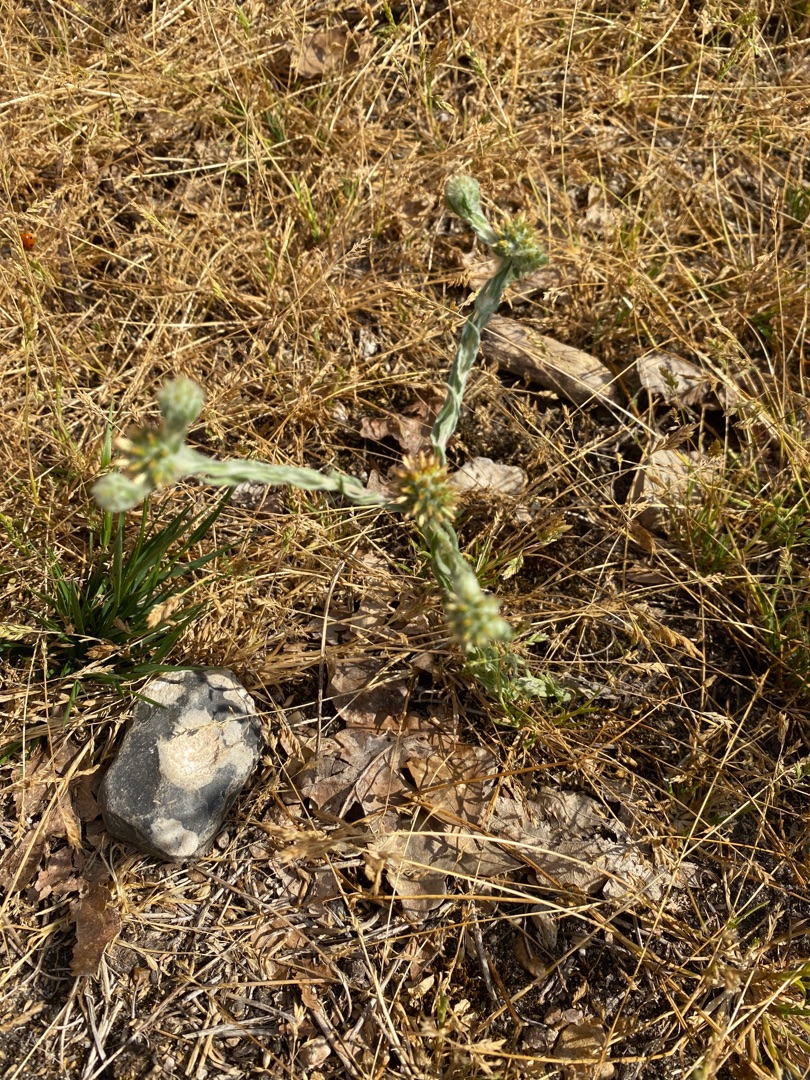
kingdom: Plantae
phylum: Tracheophyta
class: Magnoliopsida
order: Asterales
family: Asteraceae
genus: Filago
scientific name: Filago germanica
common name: Kugle-museurt
